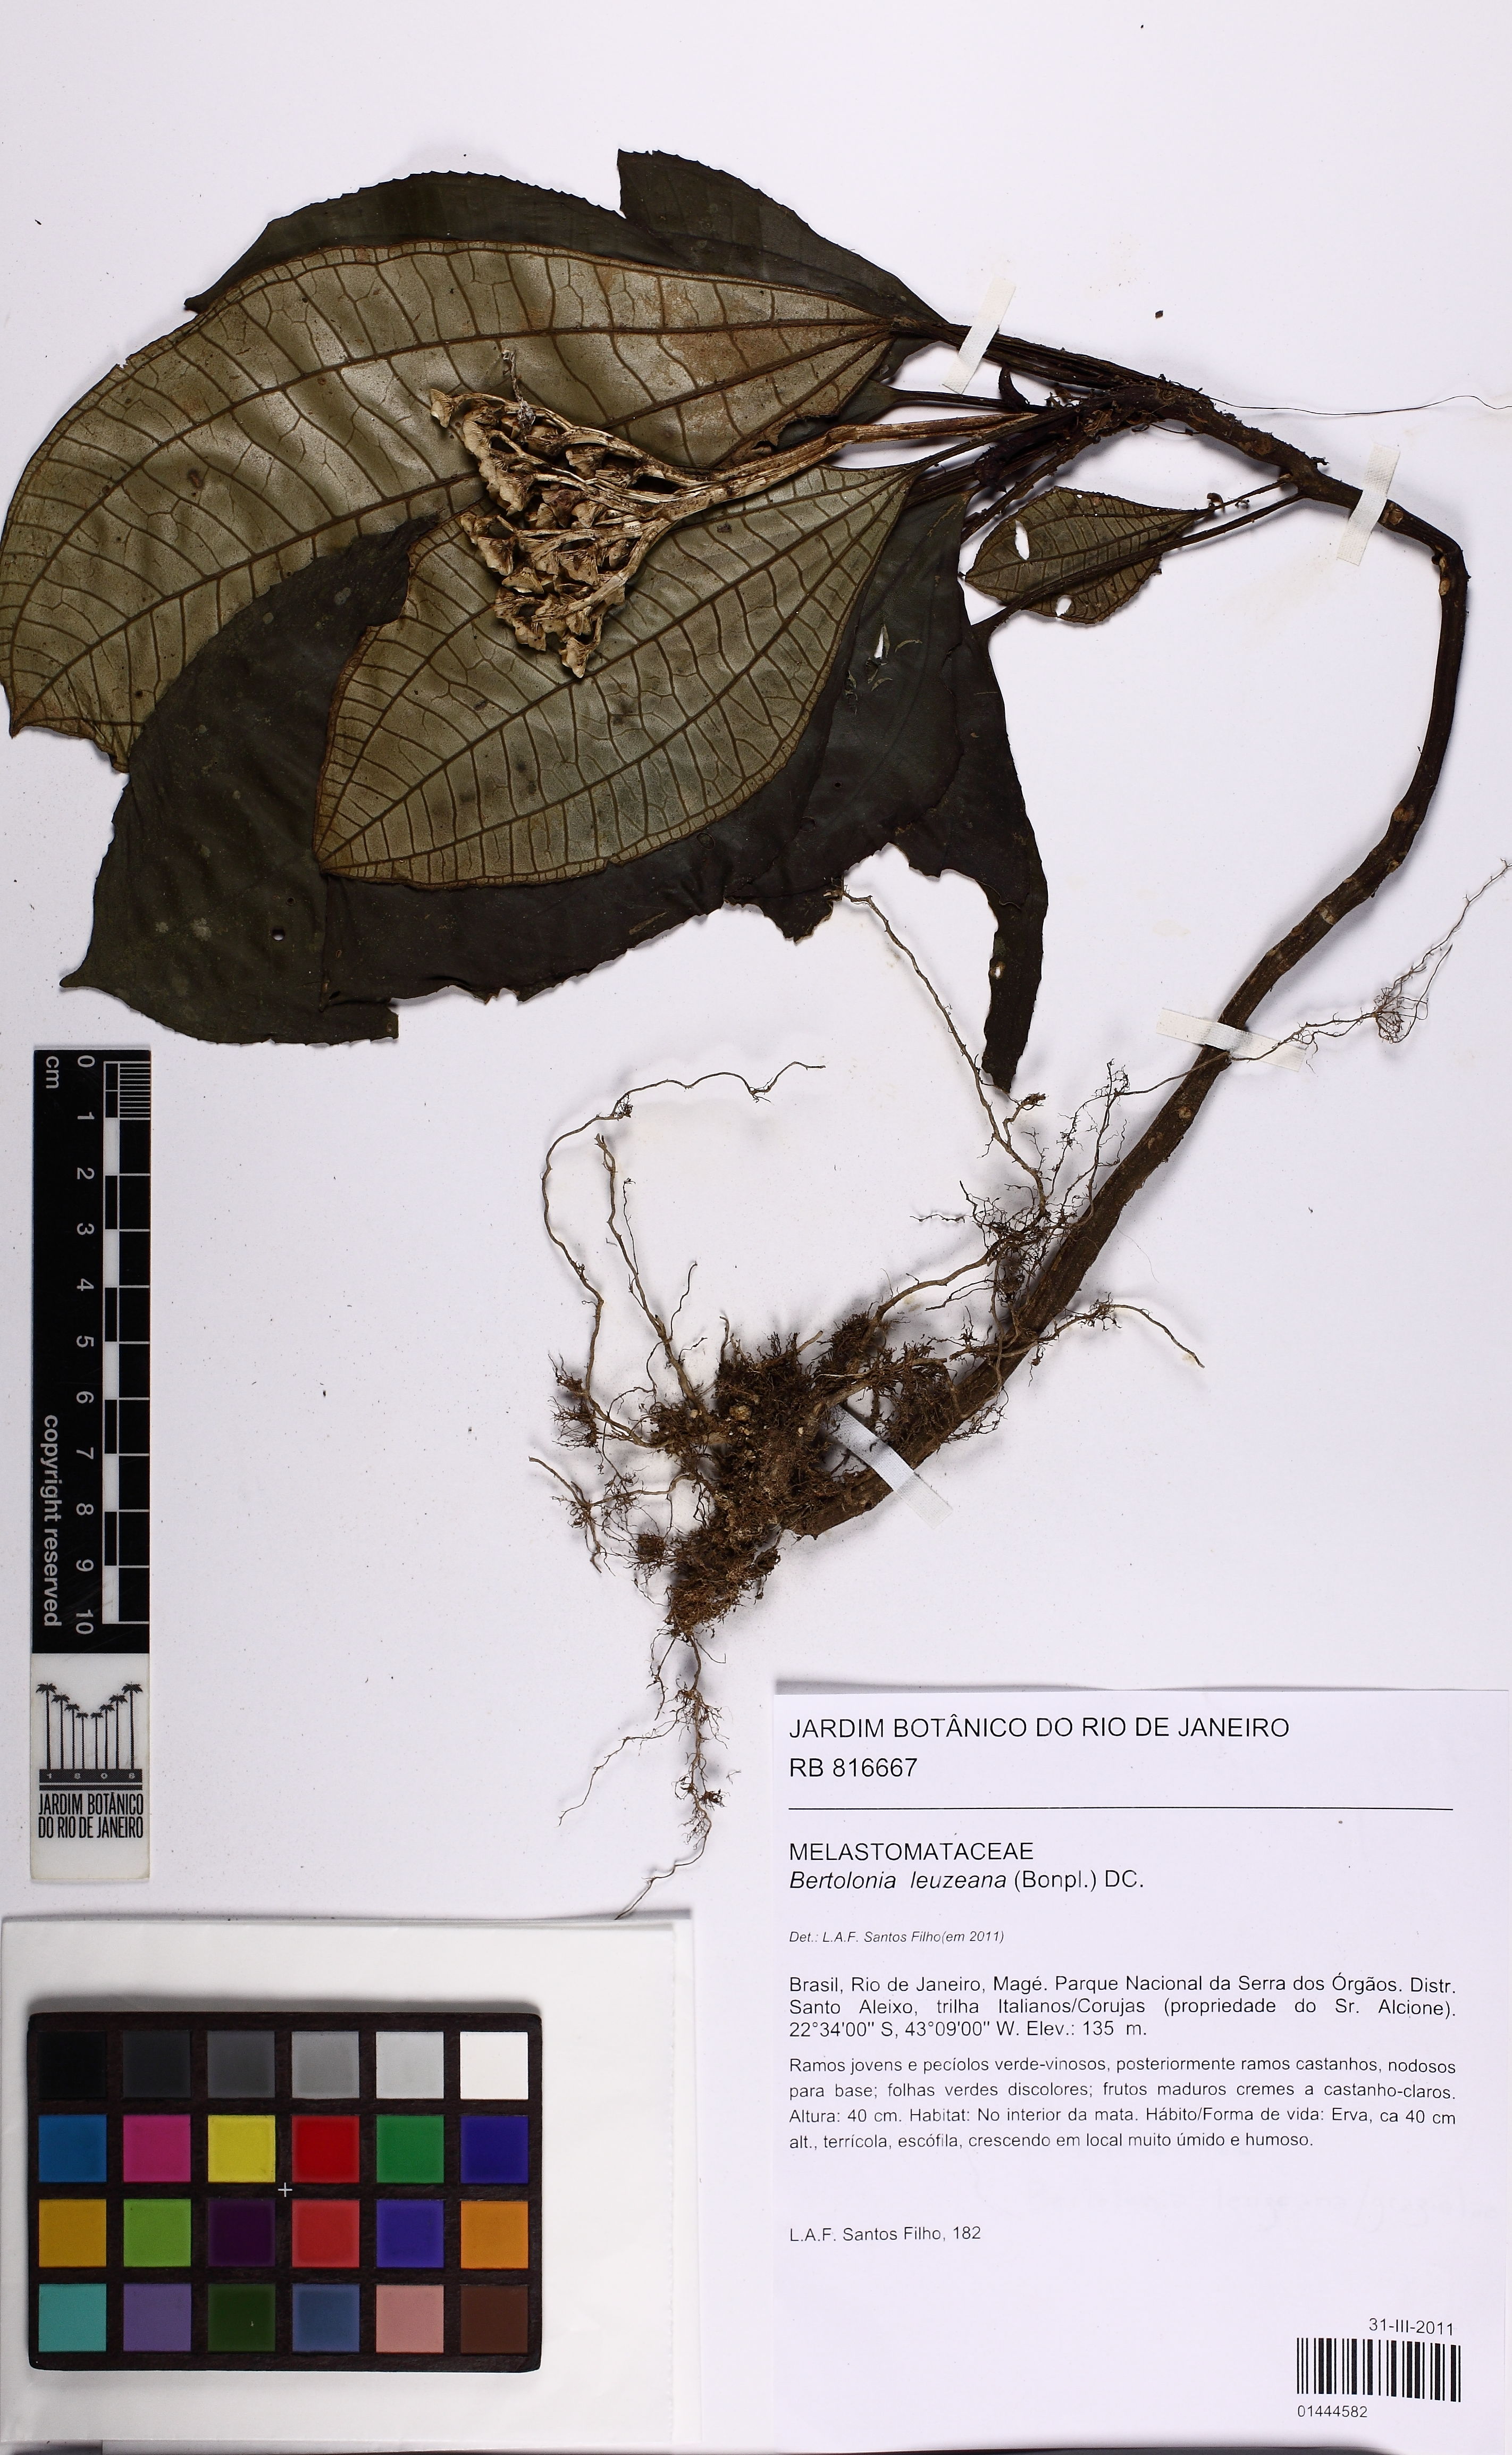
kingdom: Plantae
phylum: Tracheophyta
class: Magnoliopsida
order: Myrtales
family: Melastomataceae
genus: Bertolonia
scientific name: Bertolonia leuzeana
